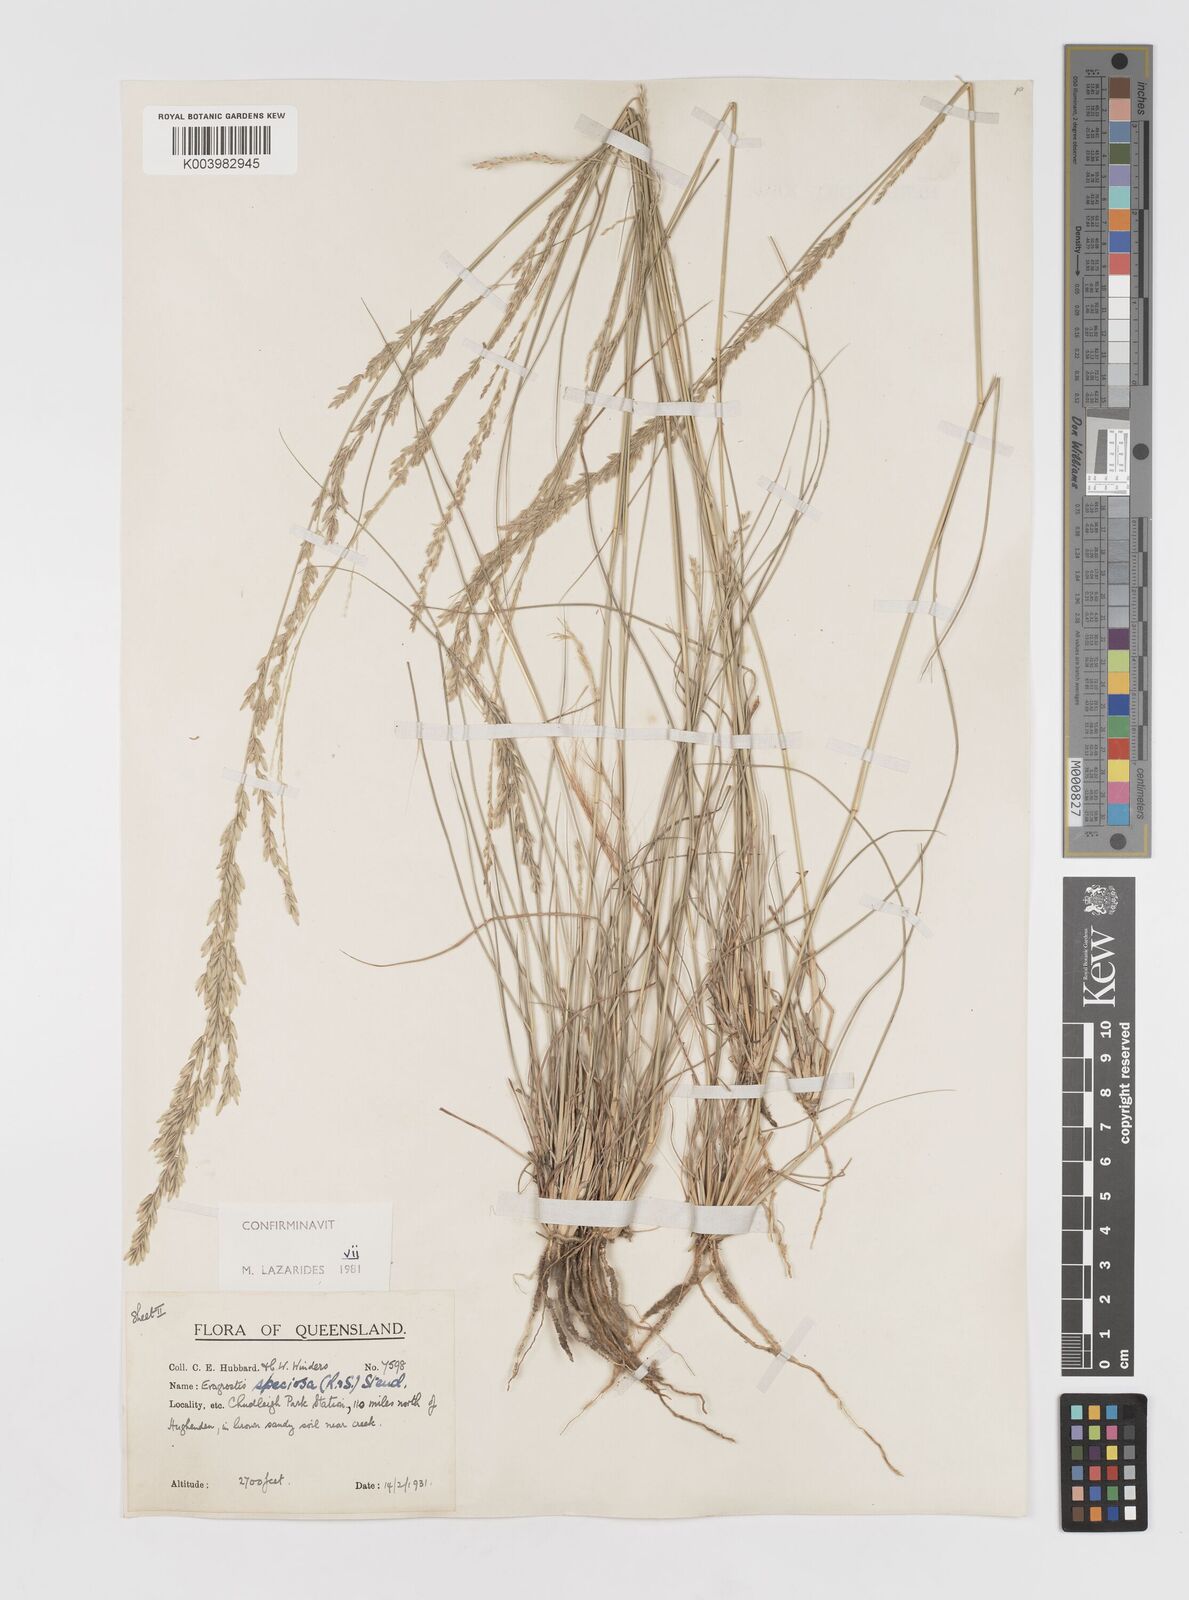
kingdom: Plantae
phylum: Tracheophyta
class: Liliopsida
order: Poales
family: Poaceae
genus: Eragrostis
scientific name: Eragrostis speciosa
